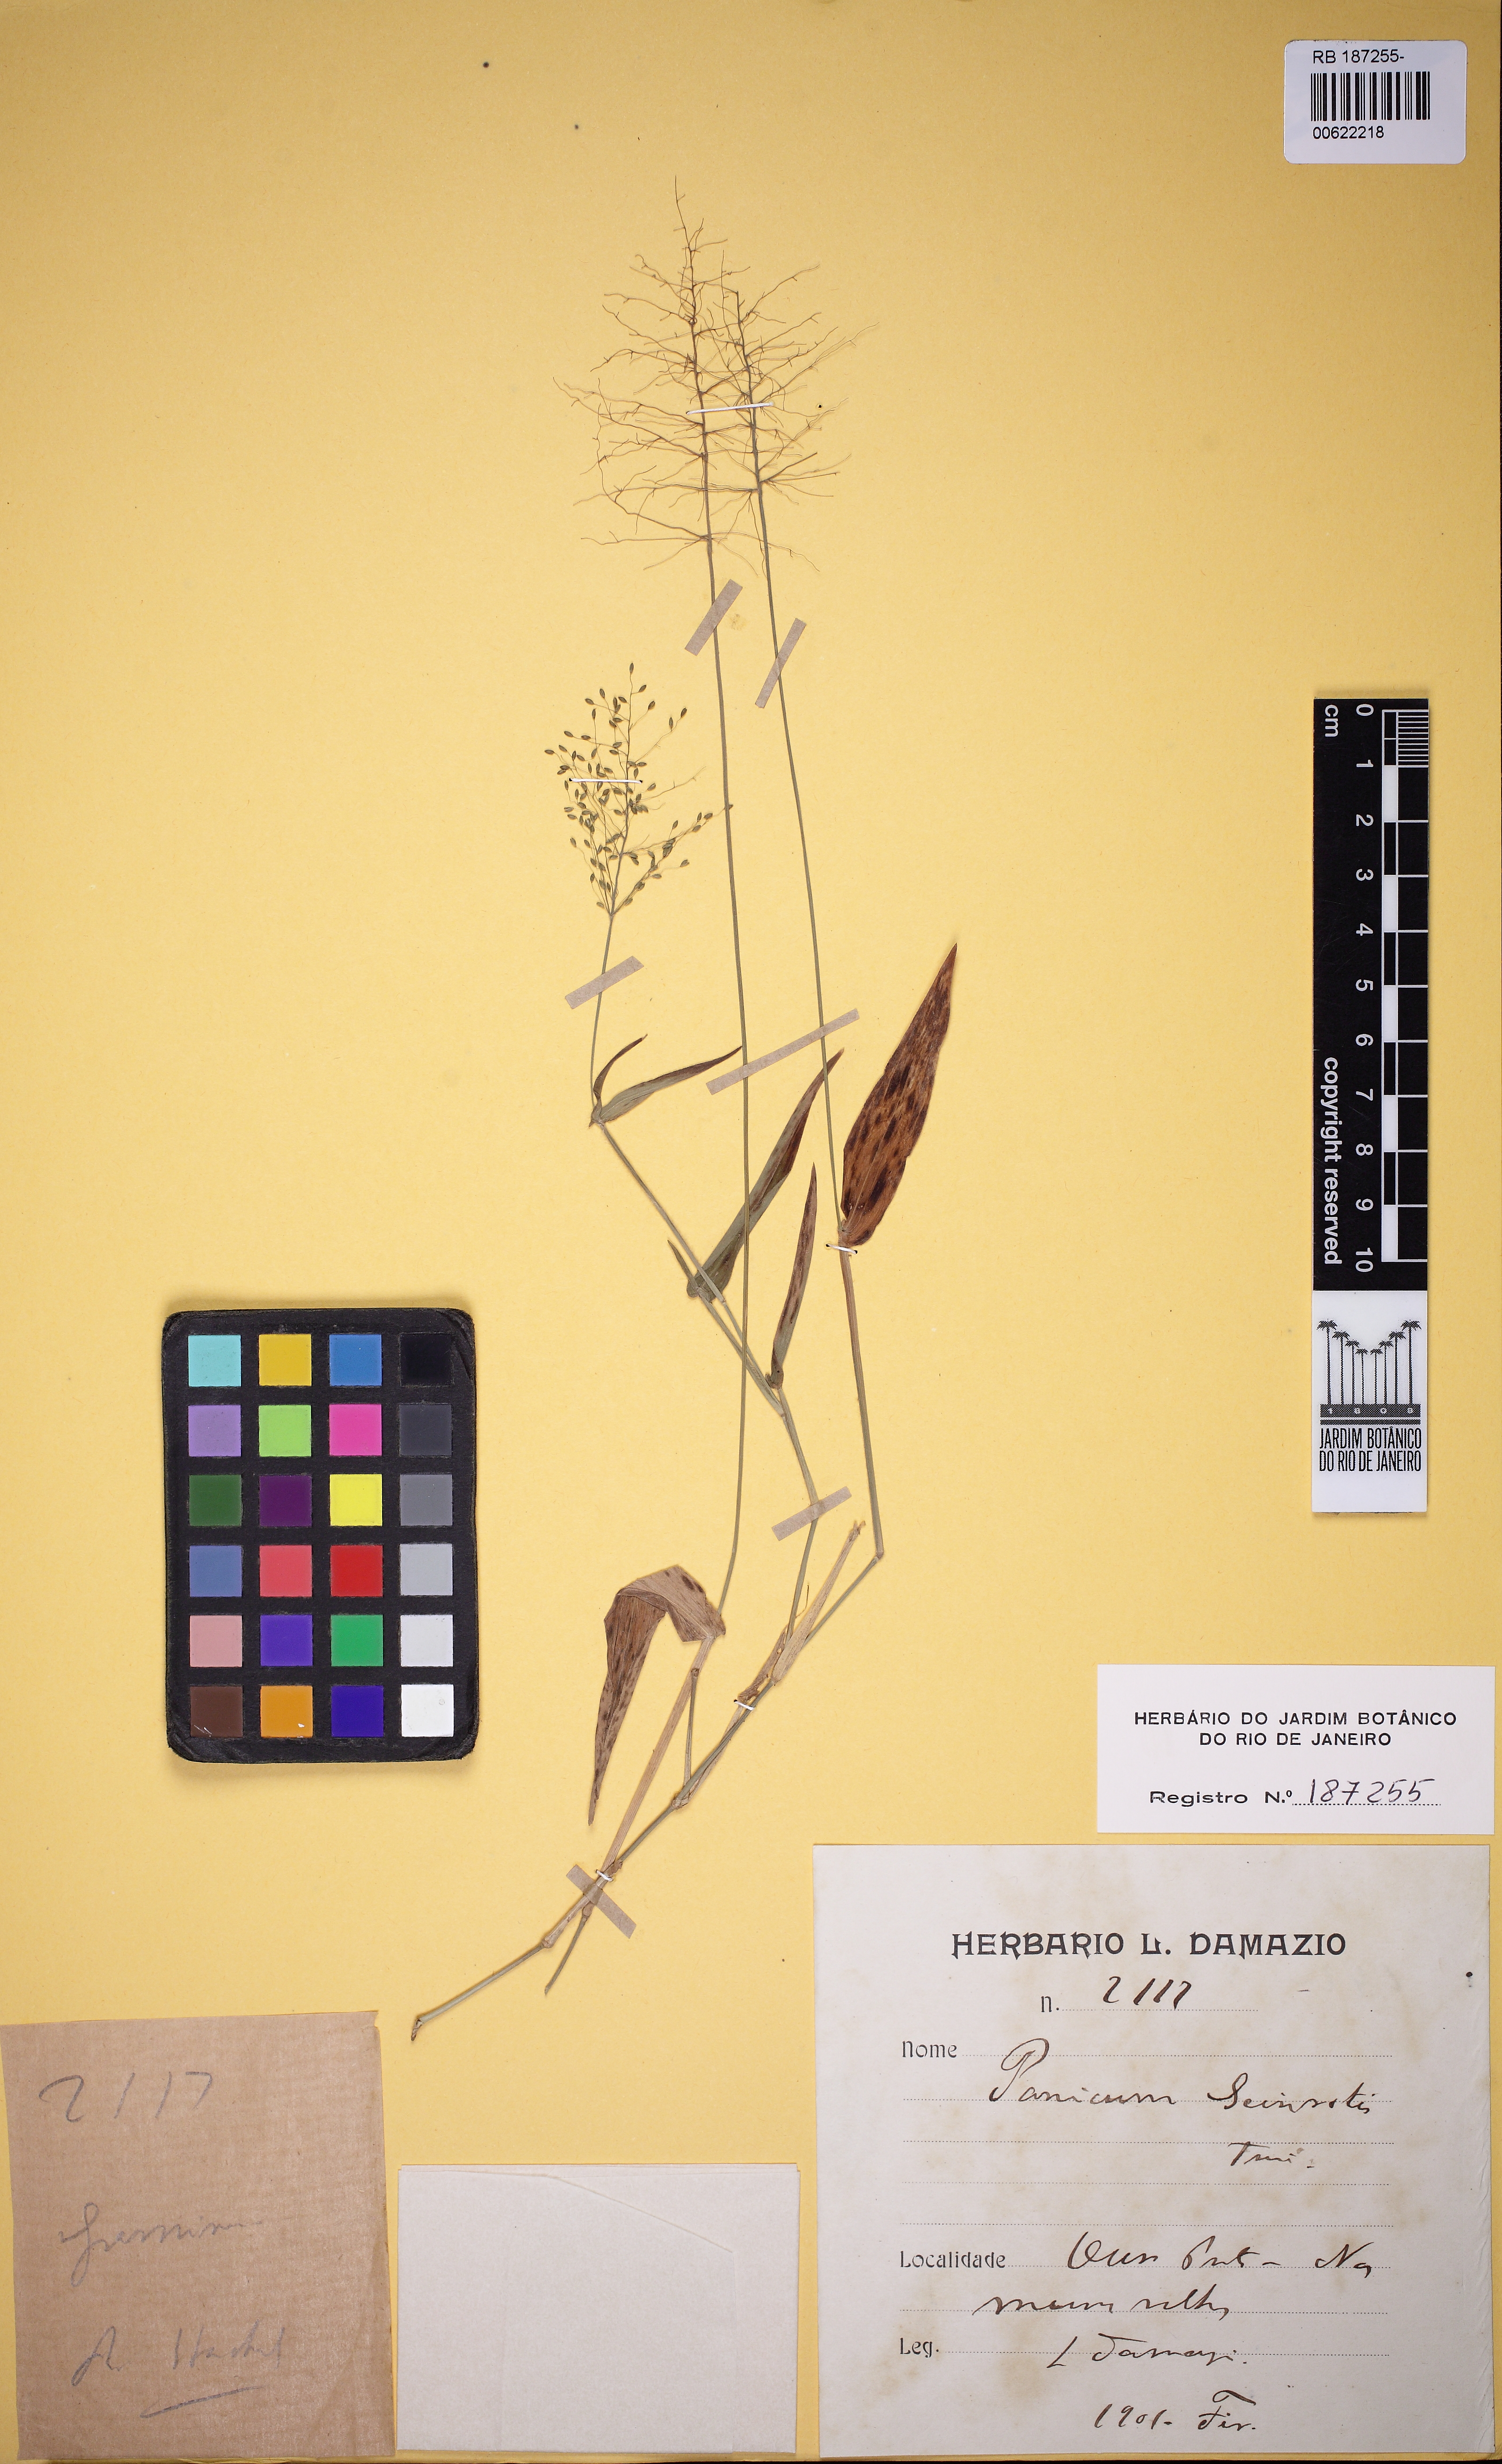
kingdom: Plantae
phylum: Tracheophyta
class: Liliopsida
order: Poales
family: Poaceae
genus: Dichanthelium
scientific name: Dichanthelium sciurotoides
